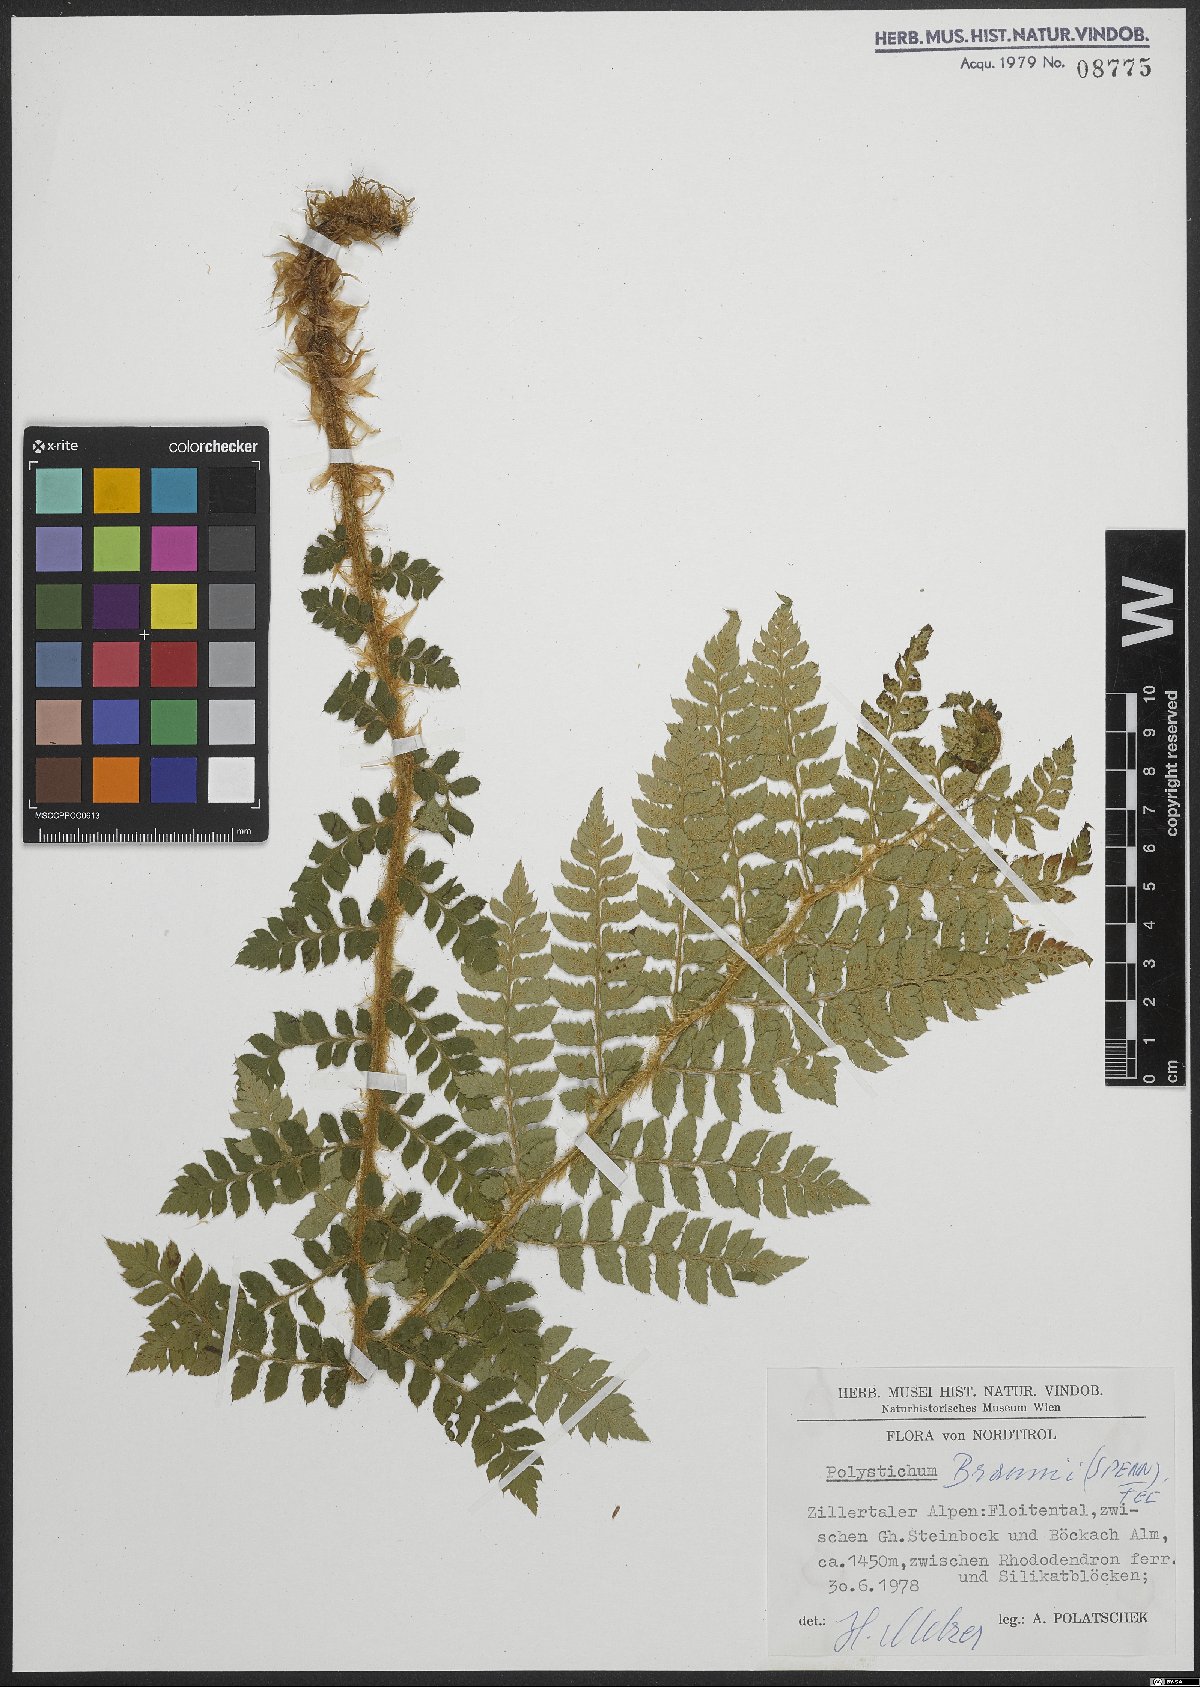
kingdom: Plantae
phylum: Tracheophyta
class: Polypodiopsida
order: Polypodiales
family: Dryopteridaceae
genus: Polystichum
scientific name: Polystichum braunii
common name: Braun's holly fern
